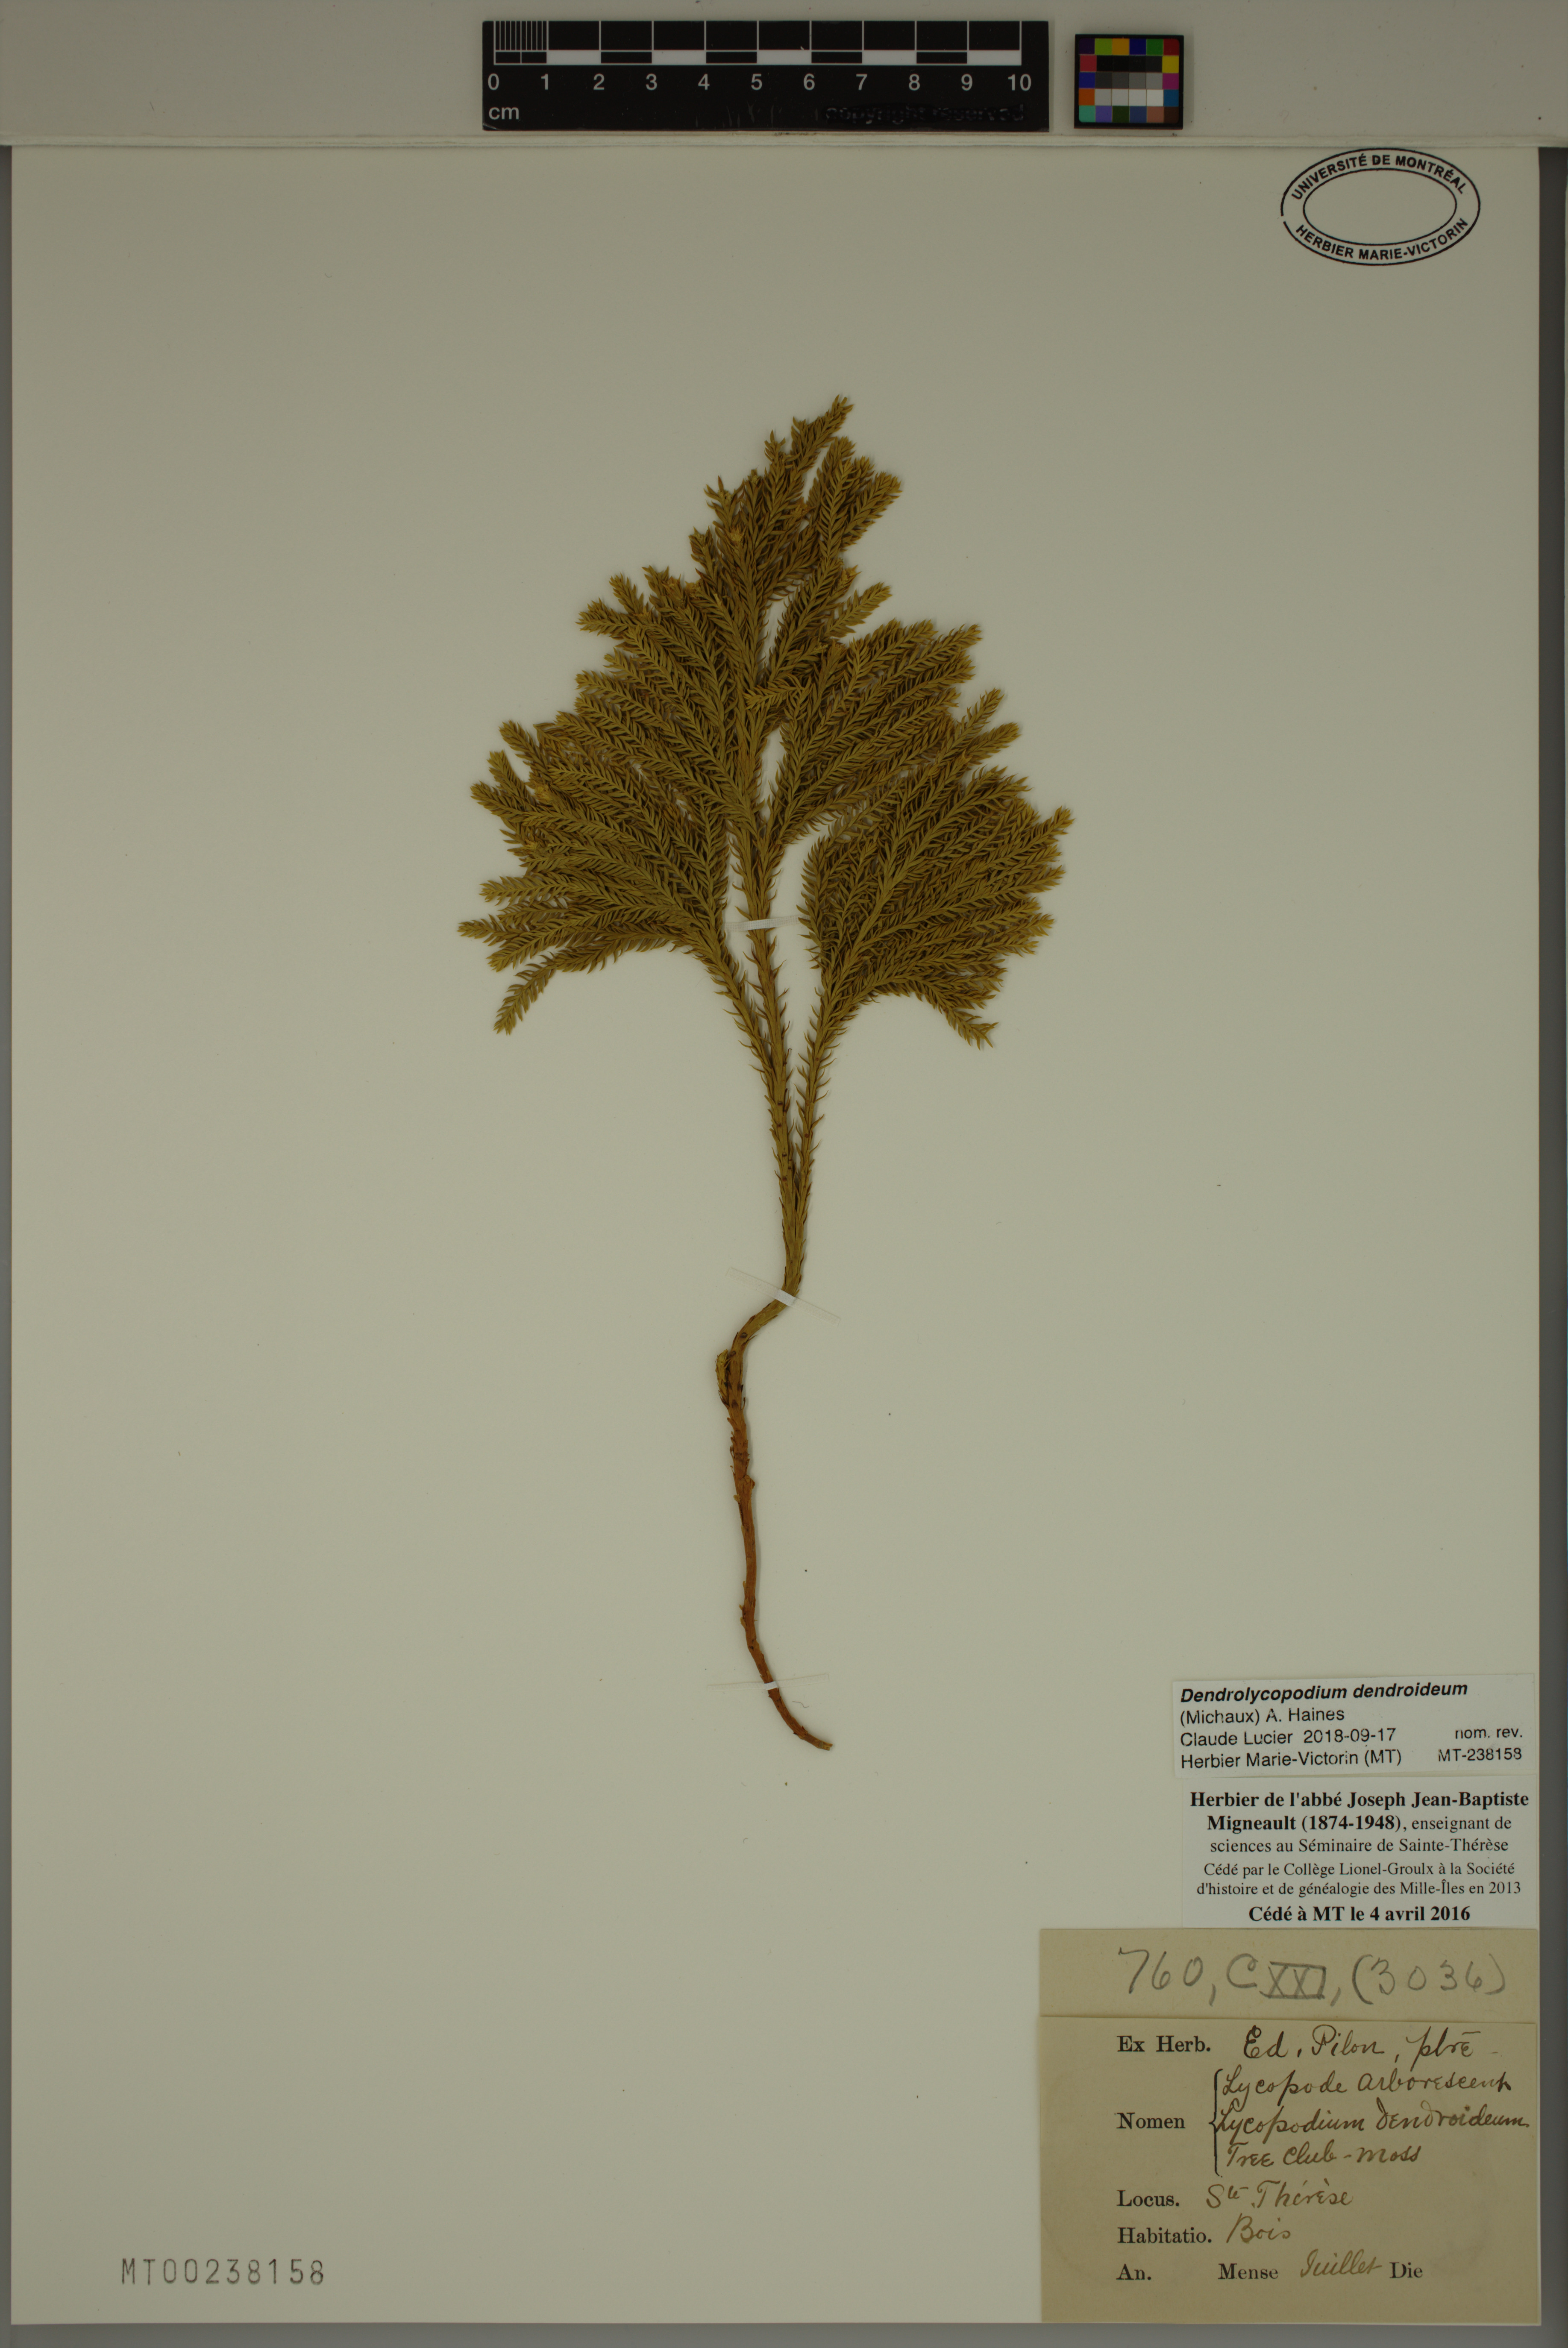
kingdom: Plantae
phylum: Tracheophyta
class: Lycopodiopsida
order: Lycopodiales
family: Lycopodiaceae
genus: Dendrolycopodium
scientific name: Dendrolycopodium dendroideum
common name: Northern tree-clubmoss
